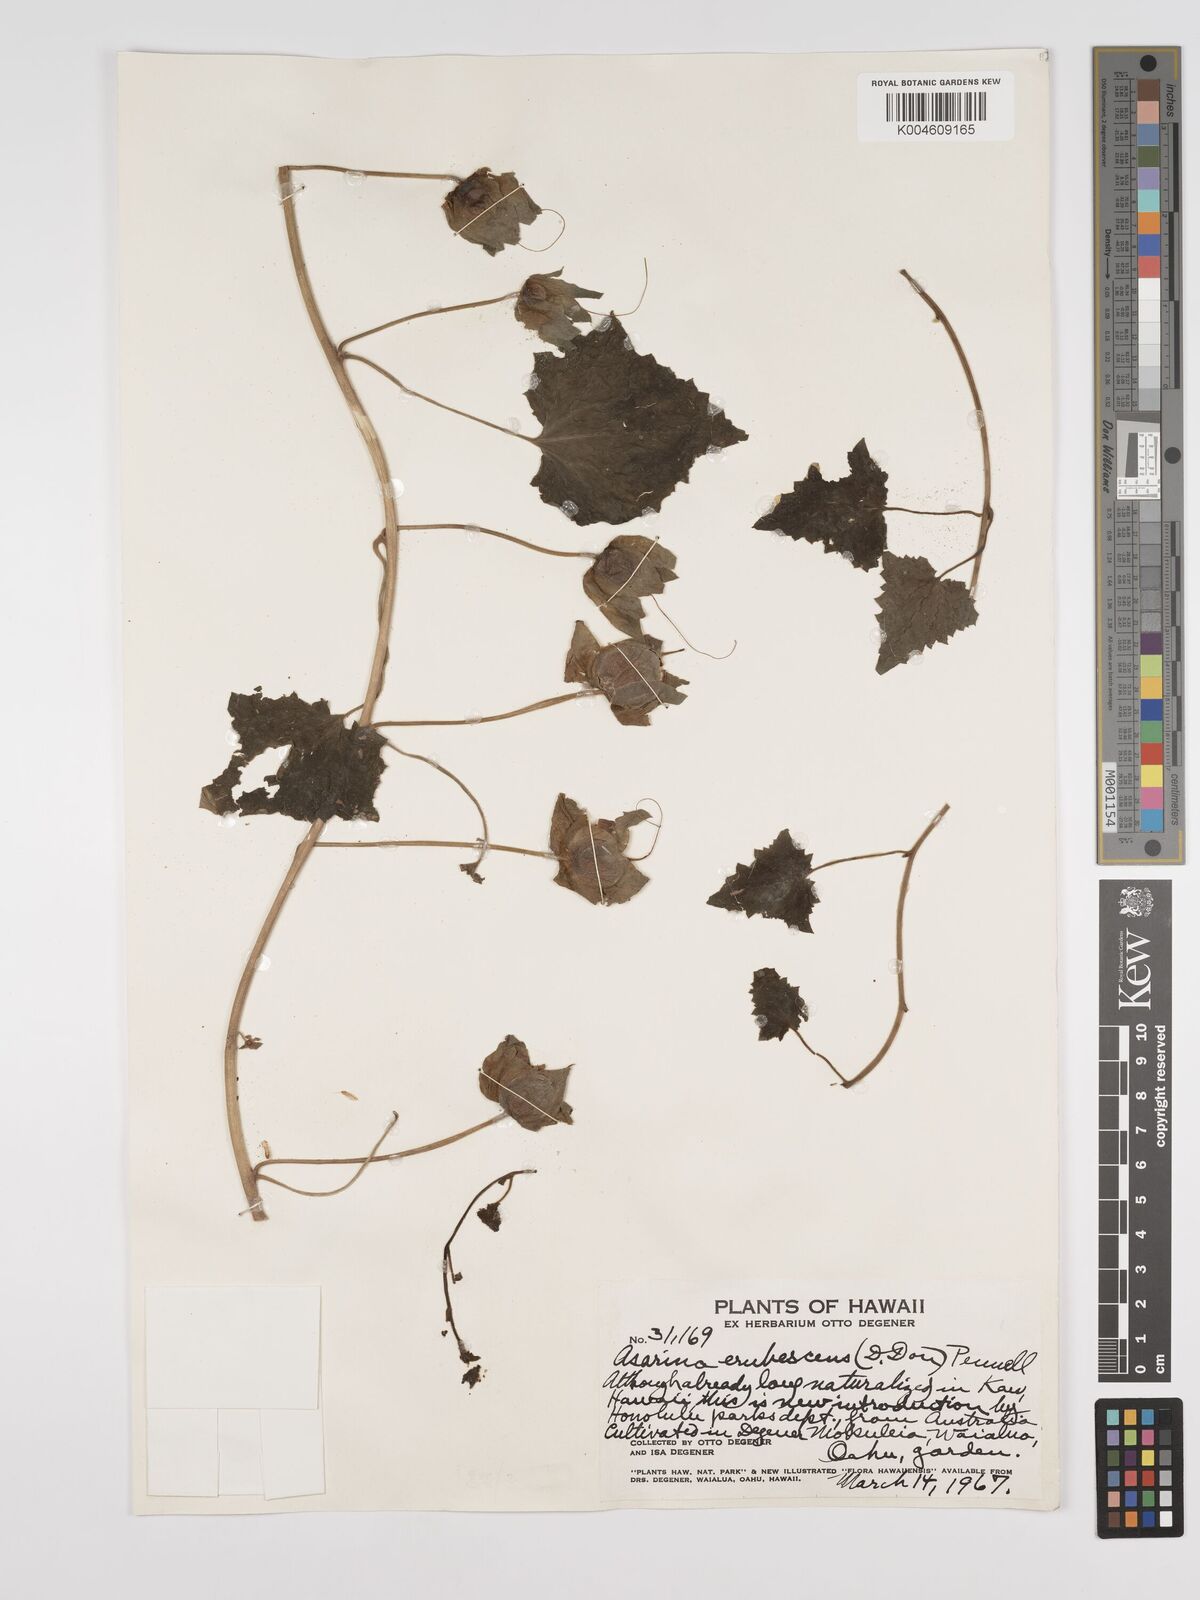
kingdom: Plantae
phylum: Tracheophyta
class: Magnoliopsida
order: Lamiales
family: Plantaginaceae
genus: Lophospermum
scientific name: Lophospermum erubescens
